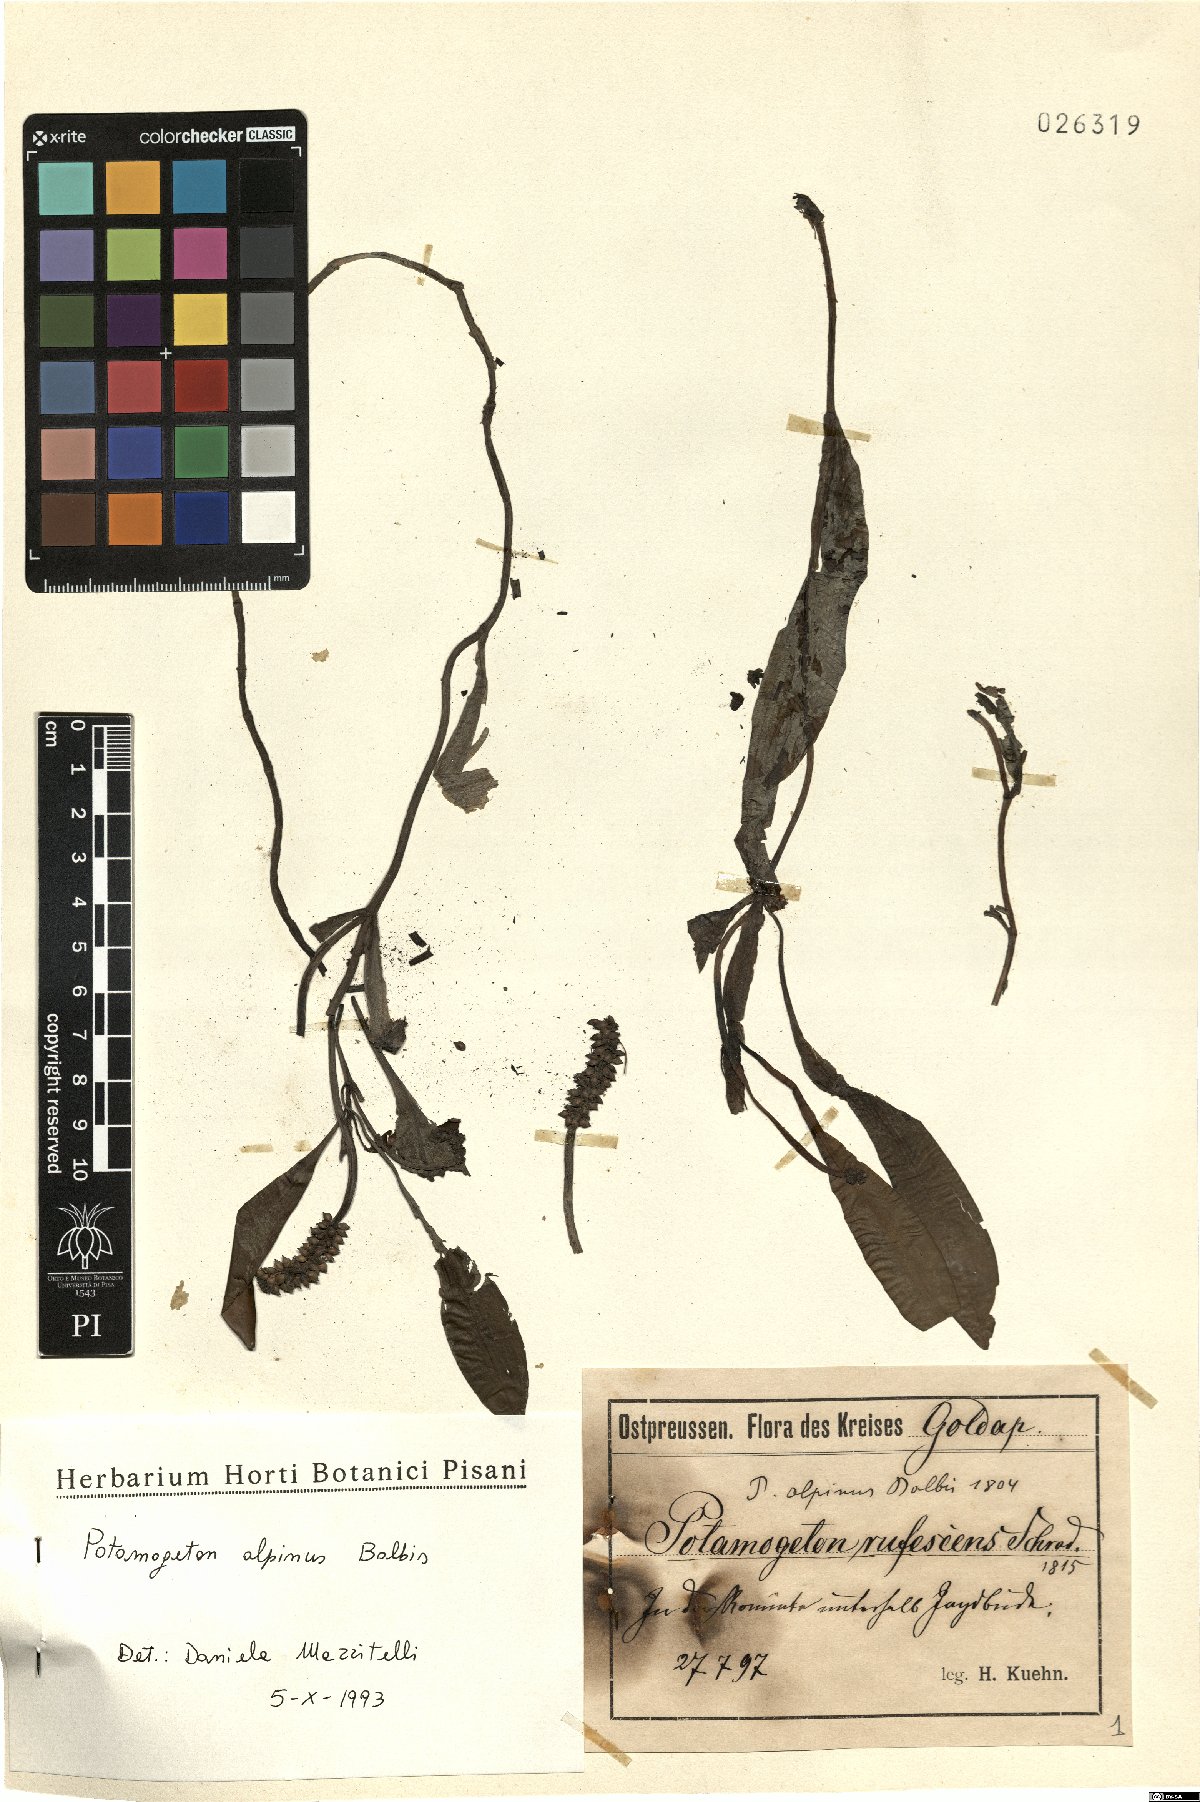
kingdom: Plantae
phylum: Tracheophyta
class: Liliopsida
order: Alismatales
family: Potamogetonaceae
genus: Potamogeton
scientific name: Potamogeton alpinus
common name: Red pondweed
